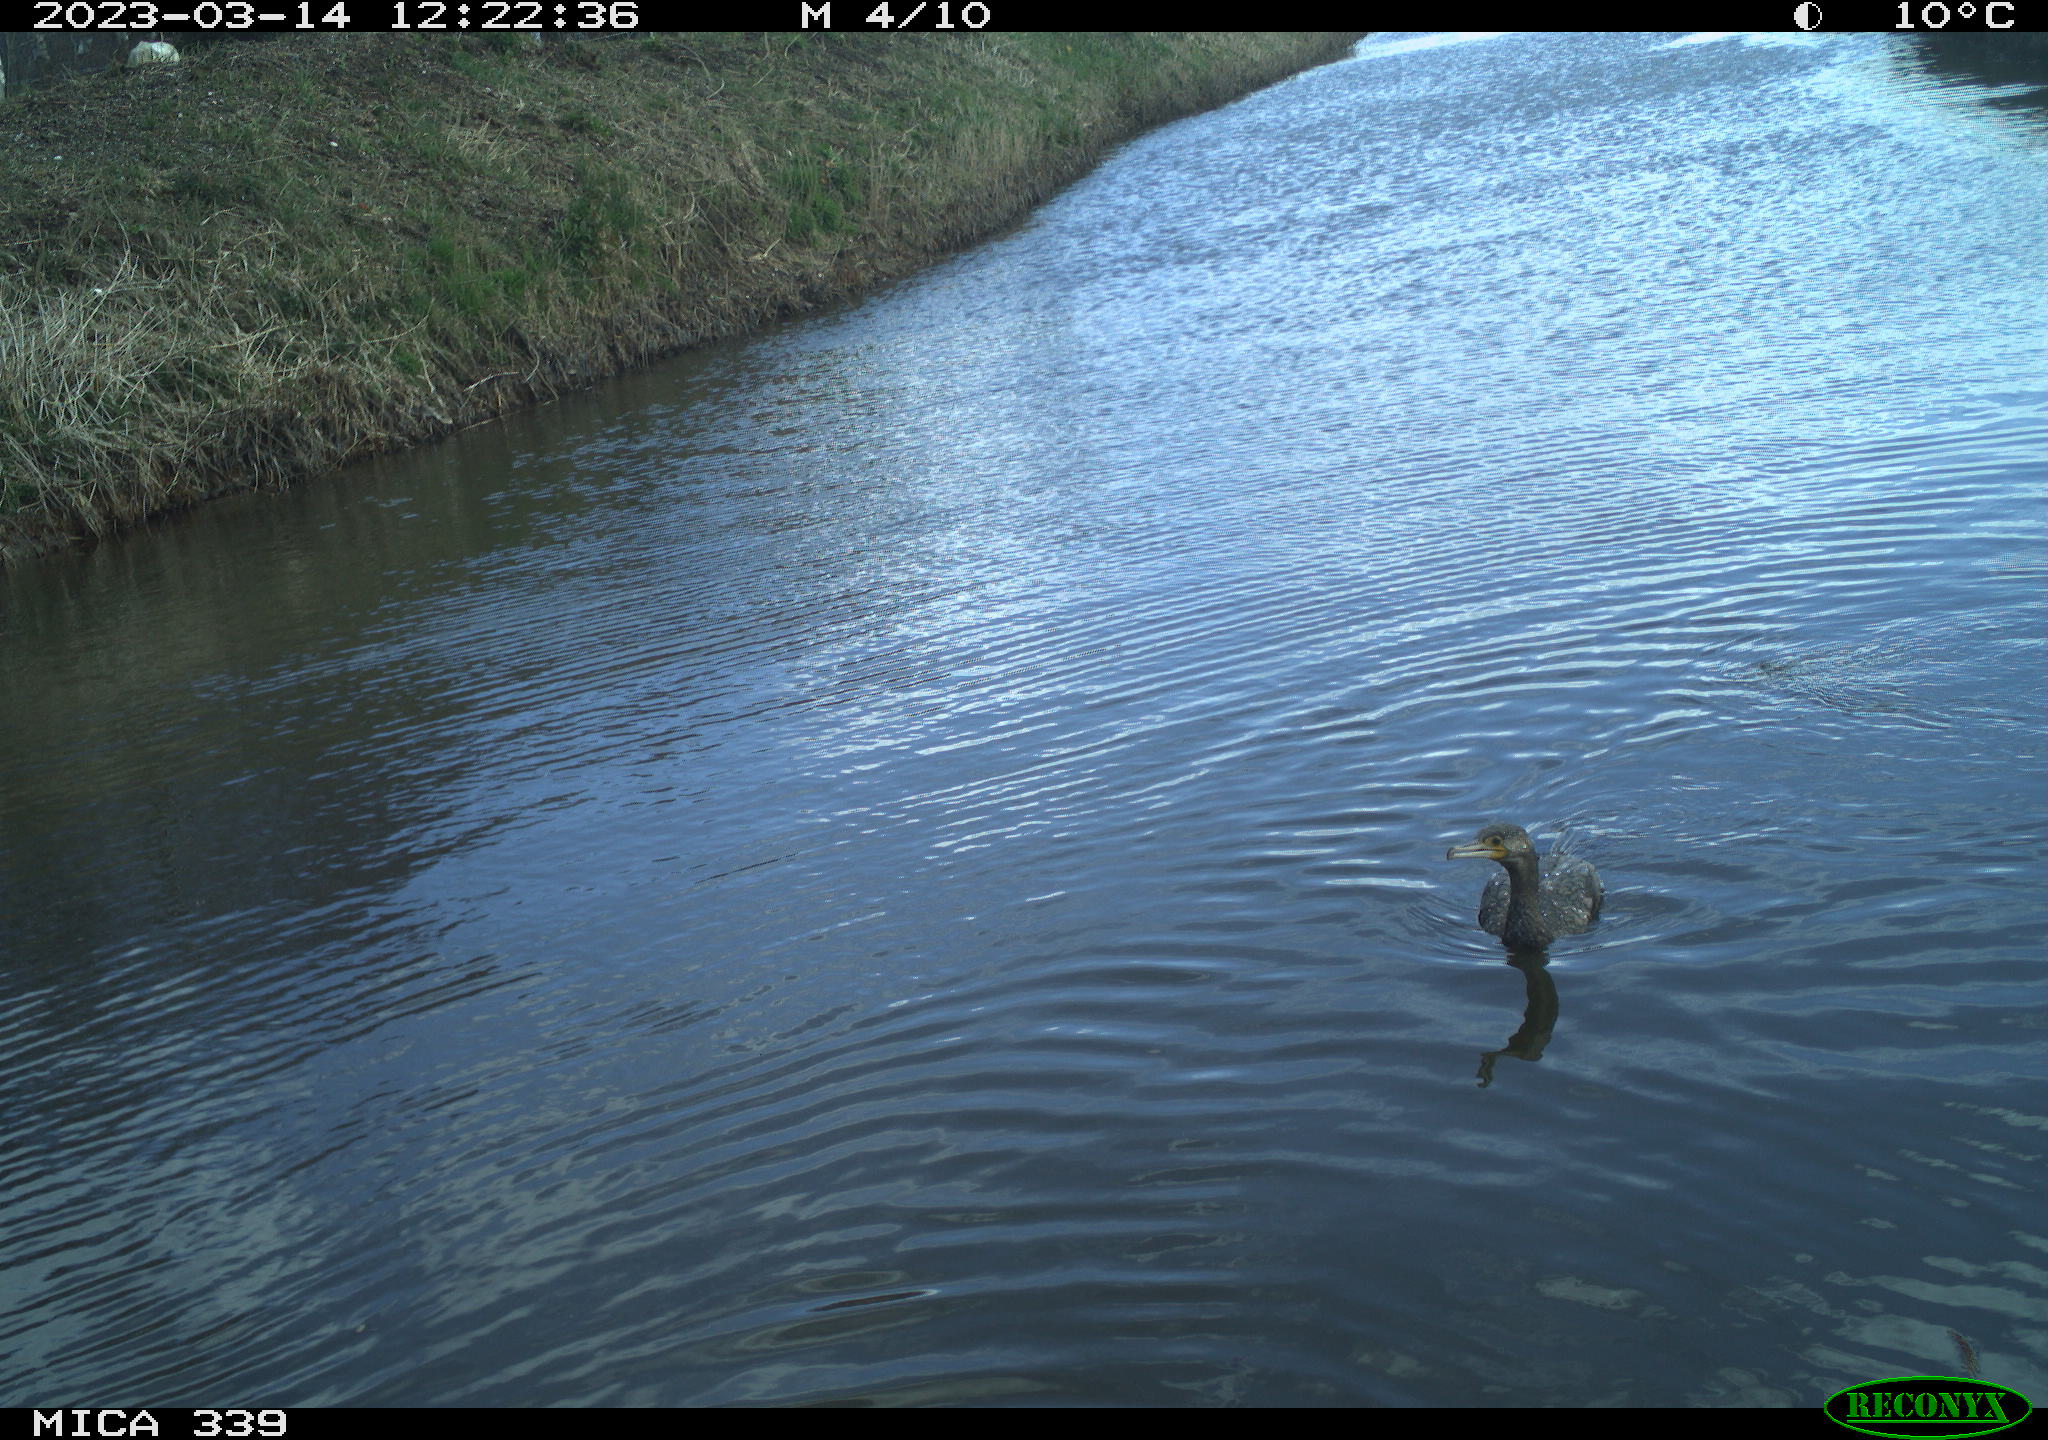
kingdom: Animalia
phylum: Chordata
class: Aves
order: Gruiformes
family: Rallidae
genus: Fulica
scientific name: Fulica atra
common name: Eurasian coot
